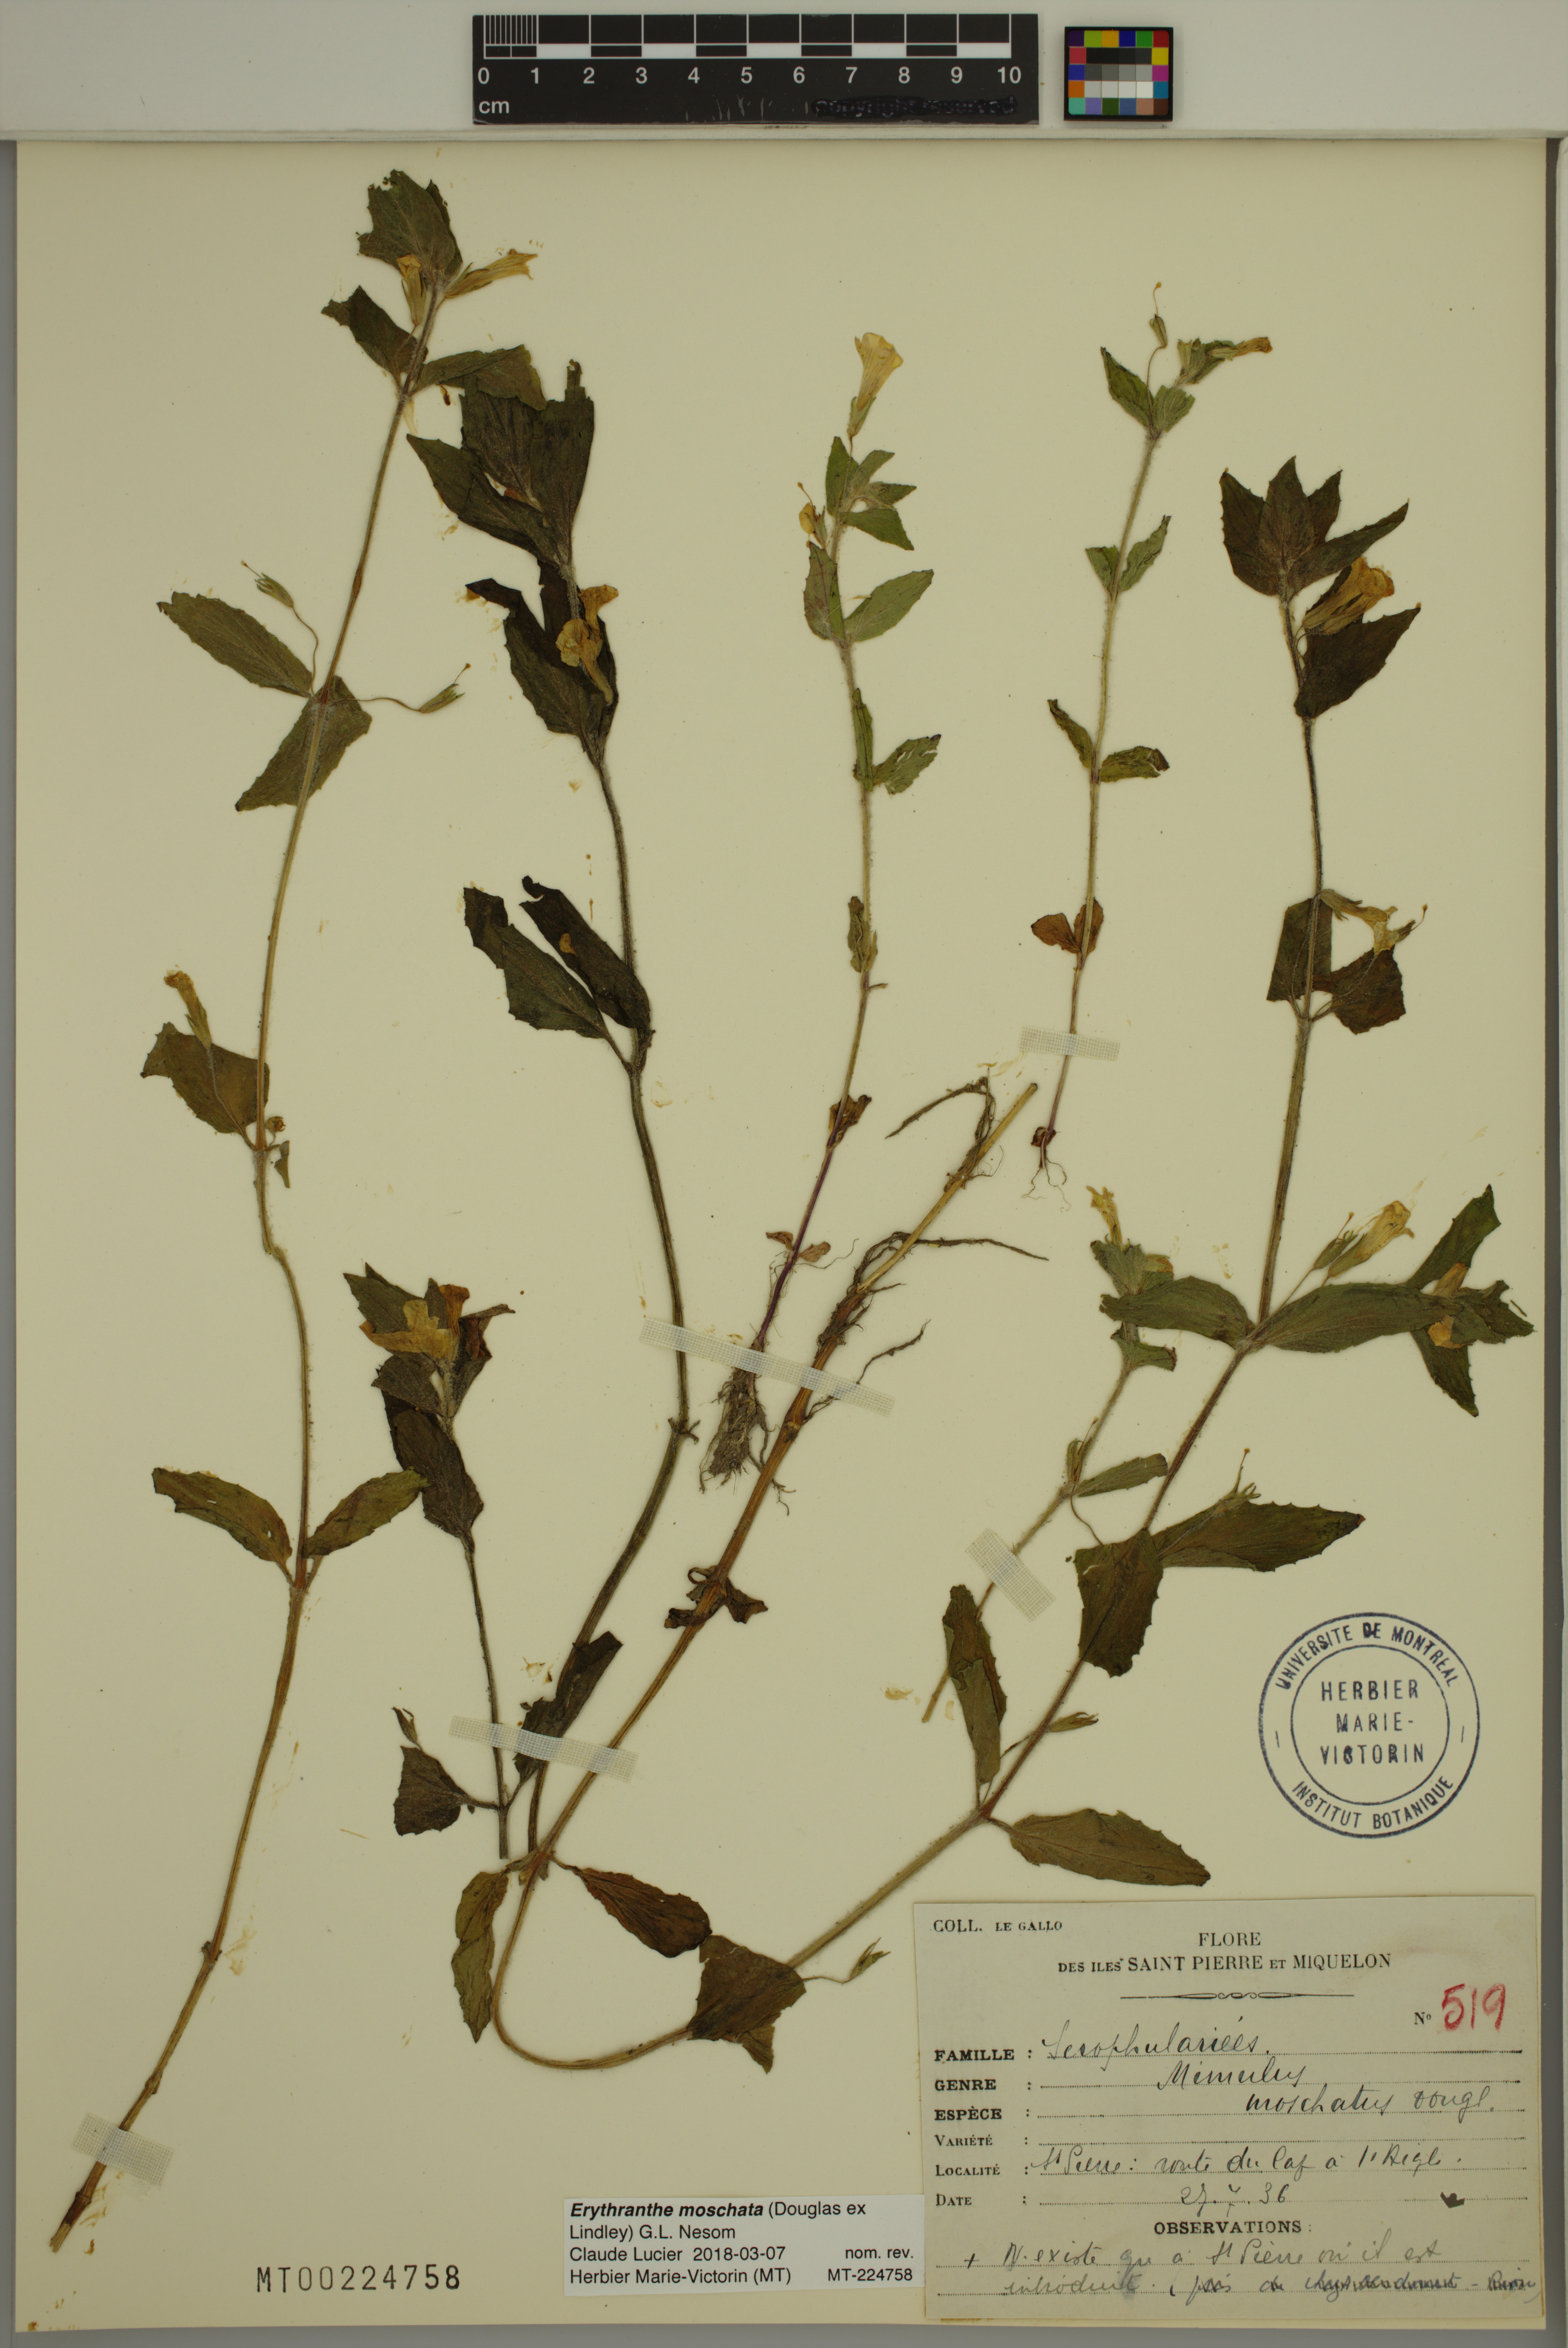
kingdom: Plantae
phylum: Tracheophyta
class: Magnoliopsida
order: Lamiales
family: Phrymaceae
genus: Erythranthe
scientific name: Erythranthe moschata
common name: Muskflower
